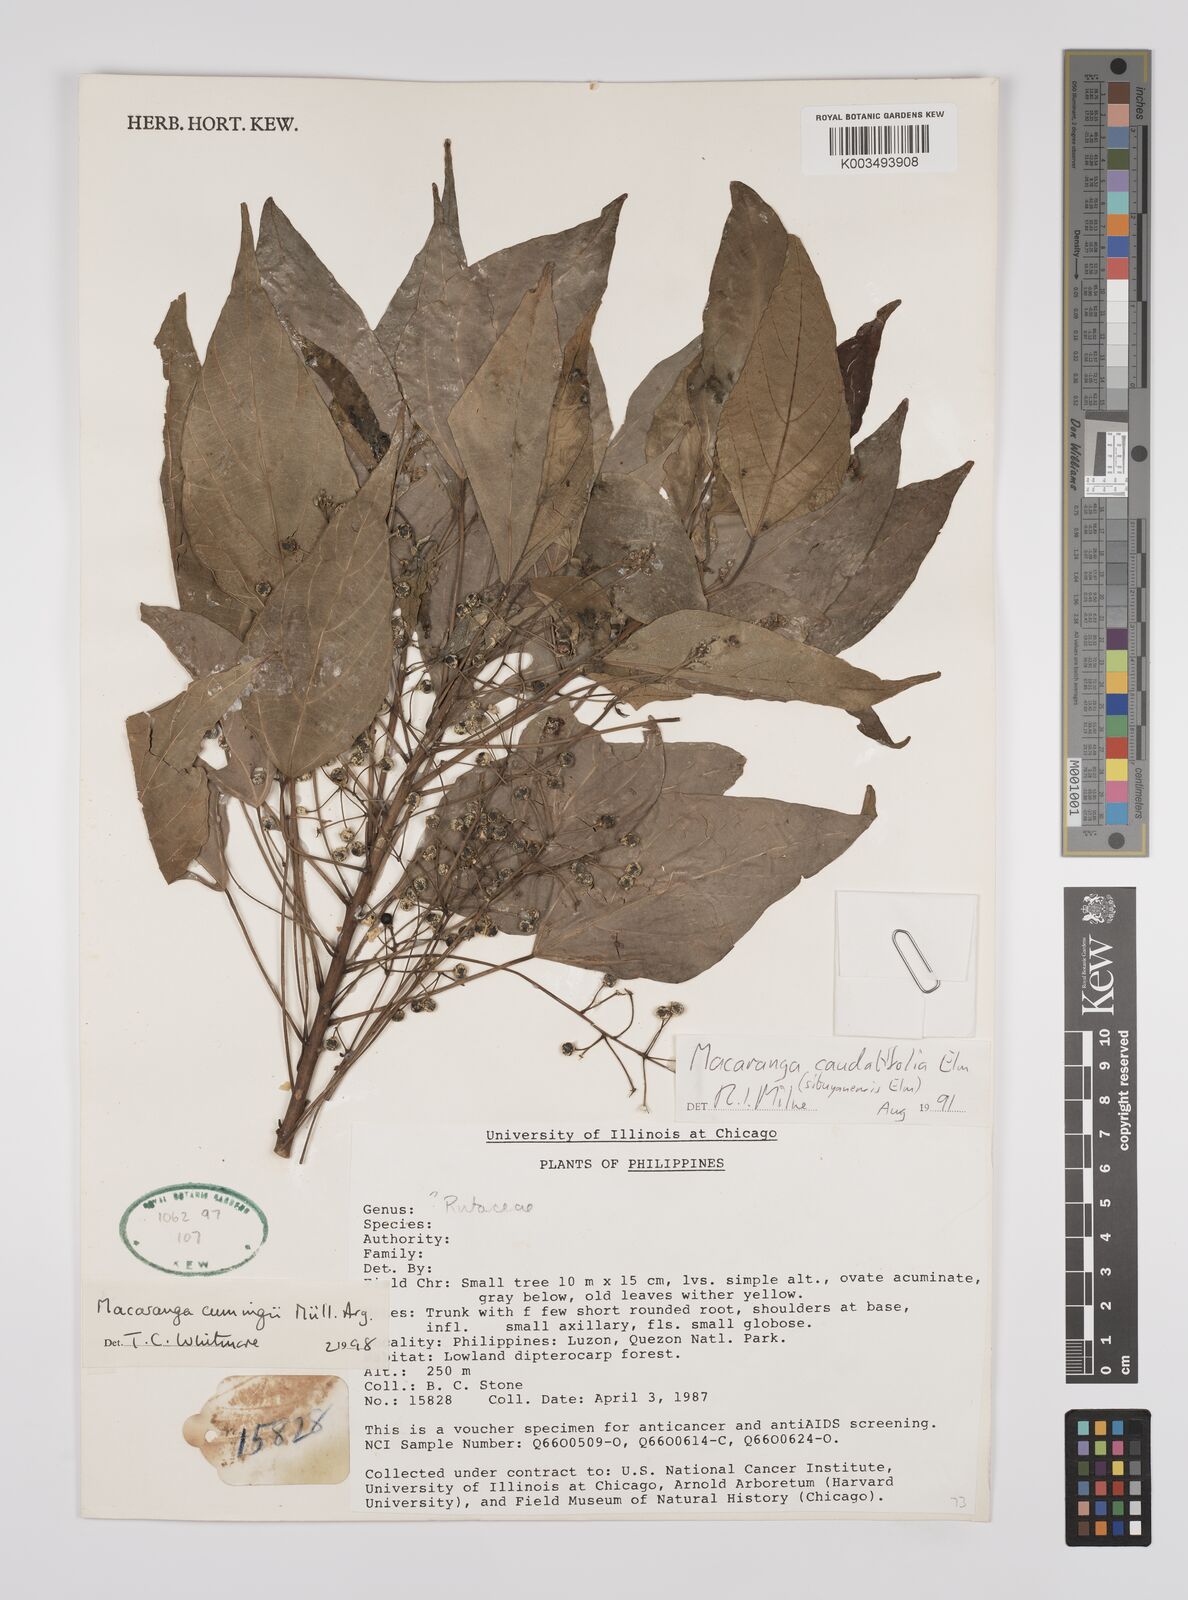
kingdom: Plantae
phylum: Tracheophyta
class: Magnoliopsida
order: Malpighiales
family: Euphorbiaceae
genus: Macaranga
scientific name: Macaranga cumingii
